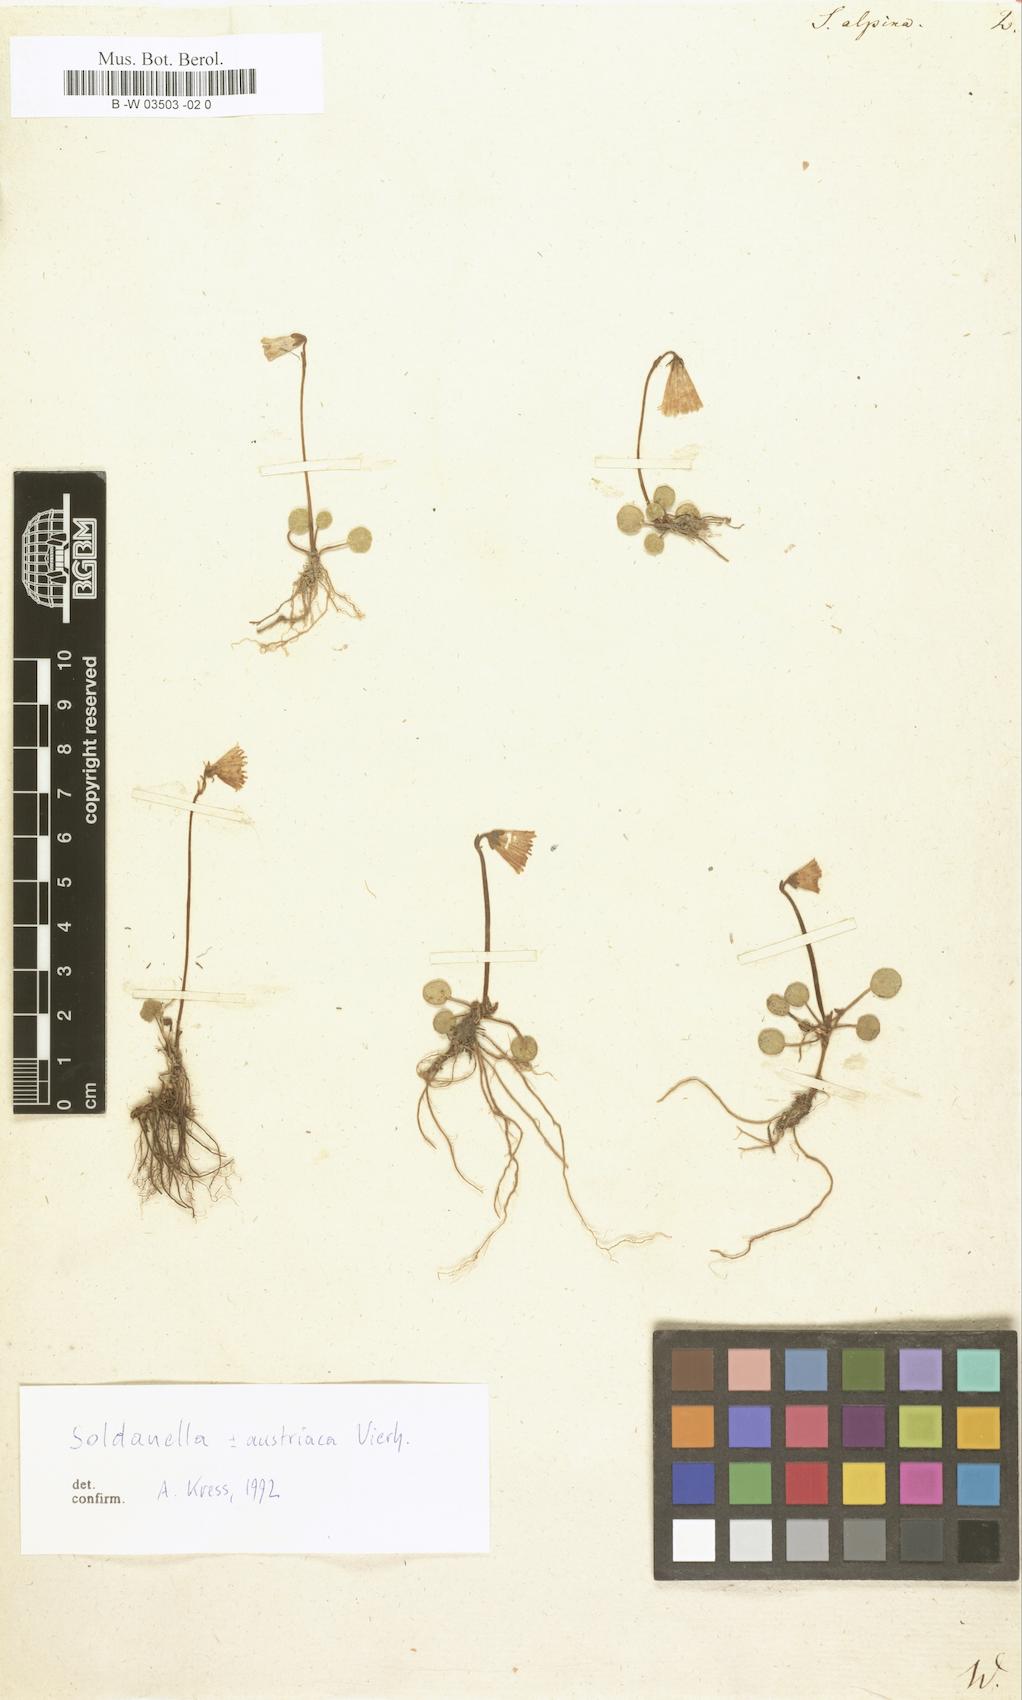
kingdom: Plantae
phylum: Tracheophyta
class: Magnoliopsida
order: Ericales
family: Primulaceae
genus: Soldanella
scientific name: Soldanella alpina
